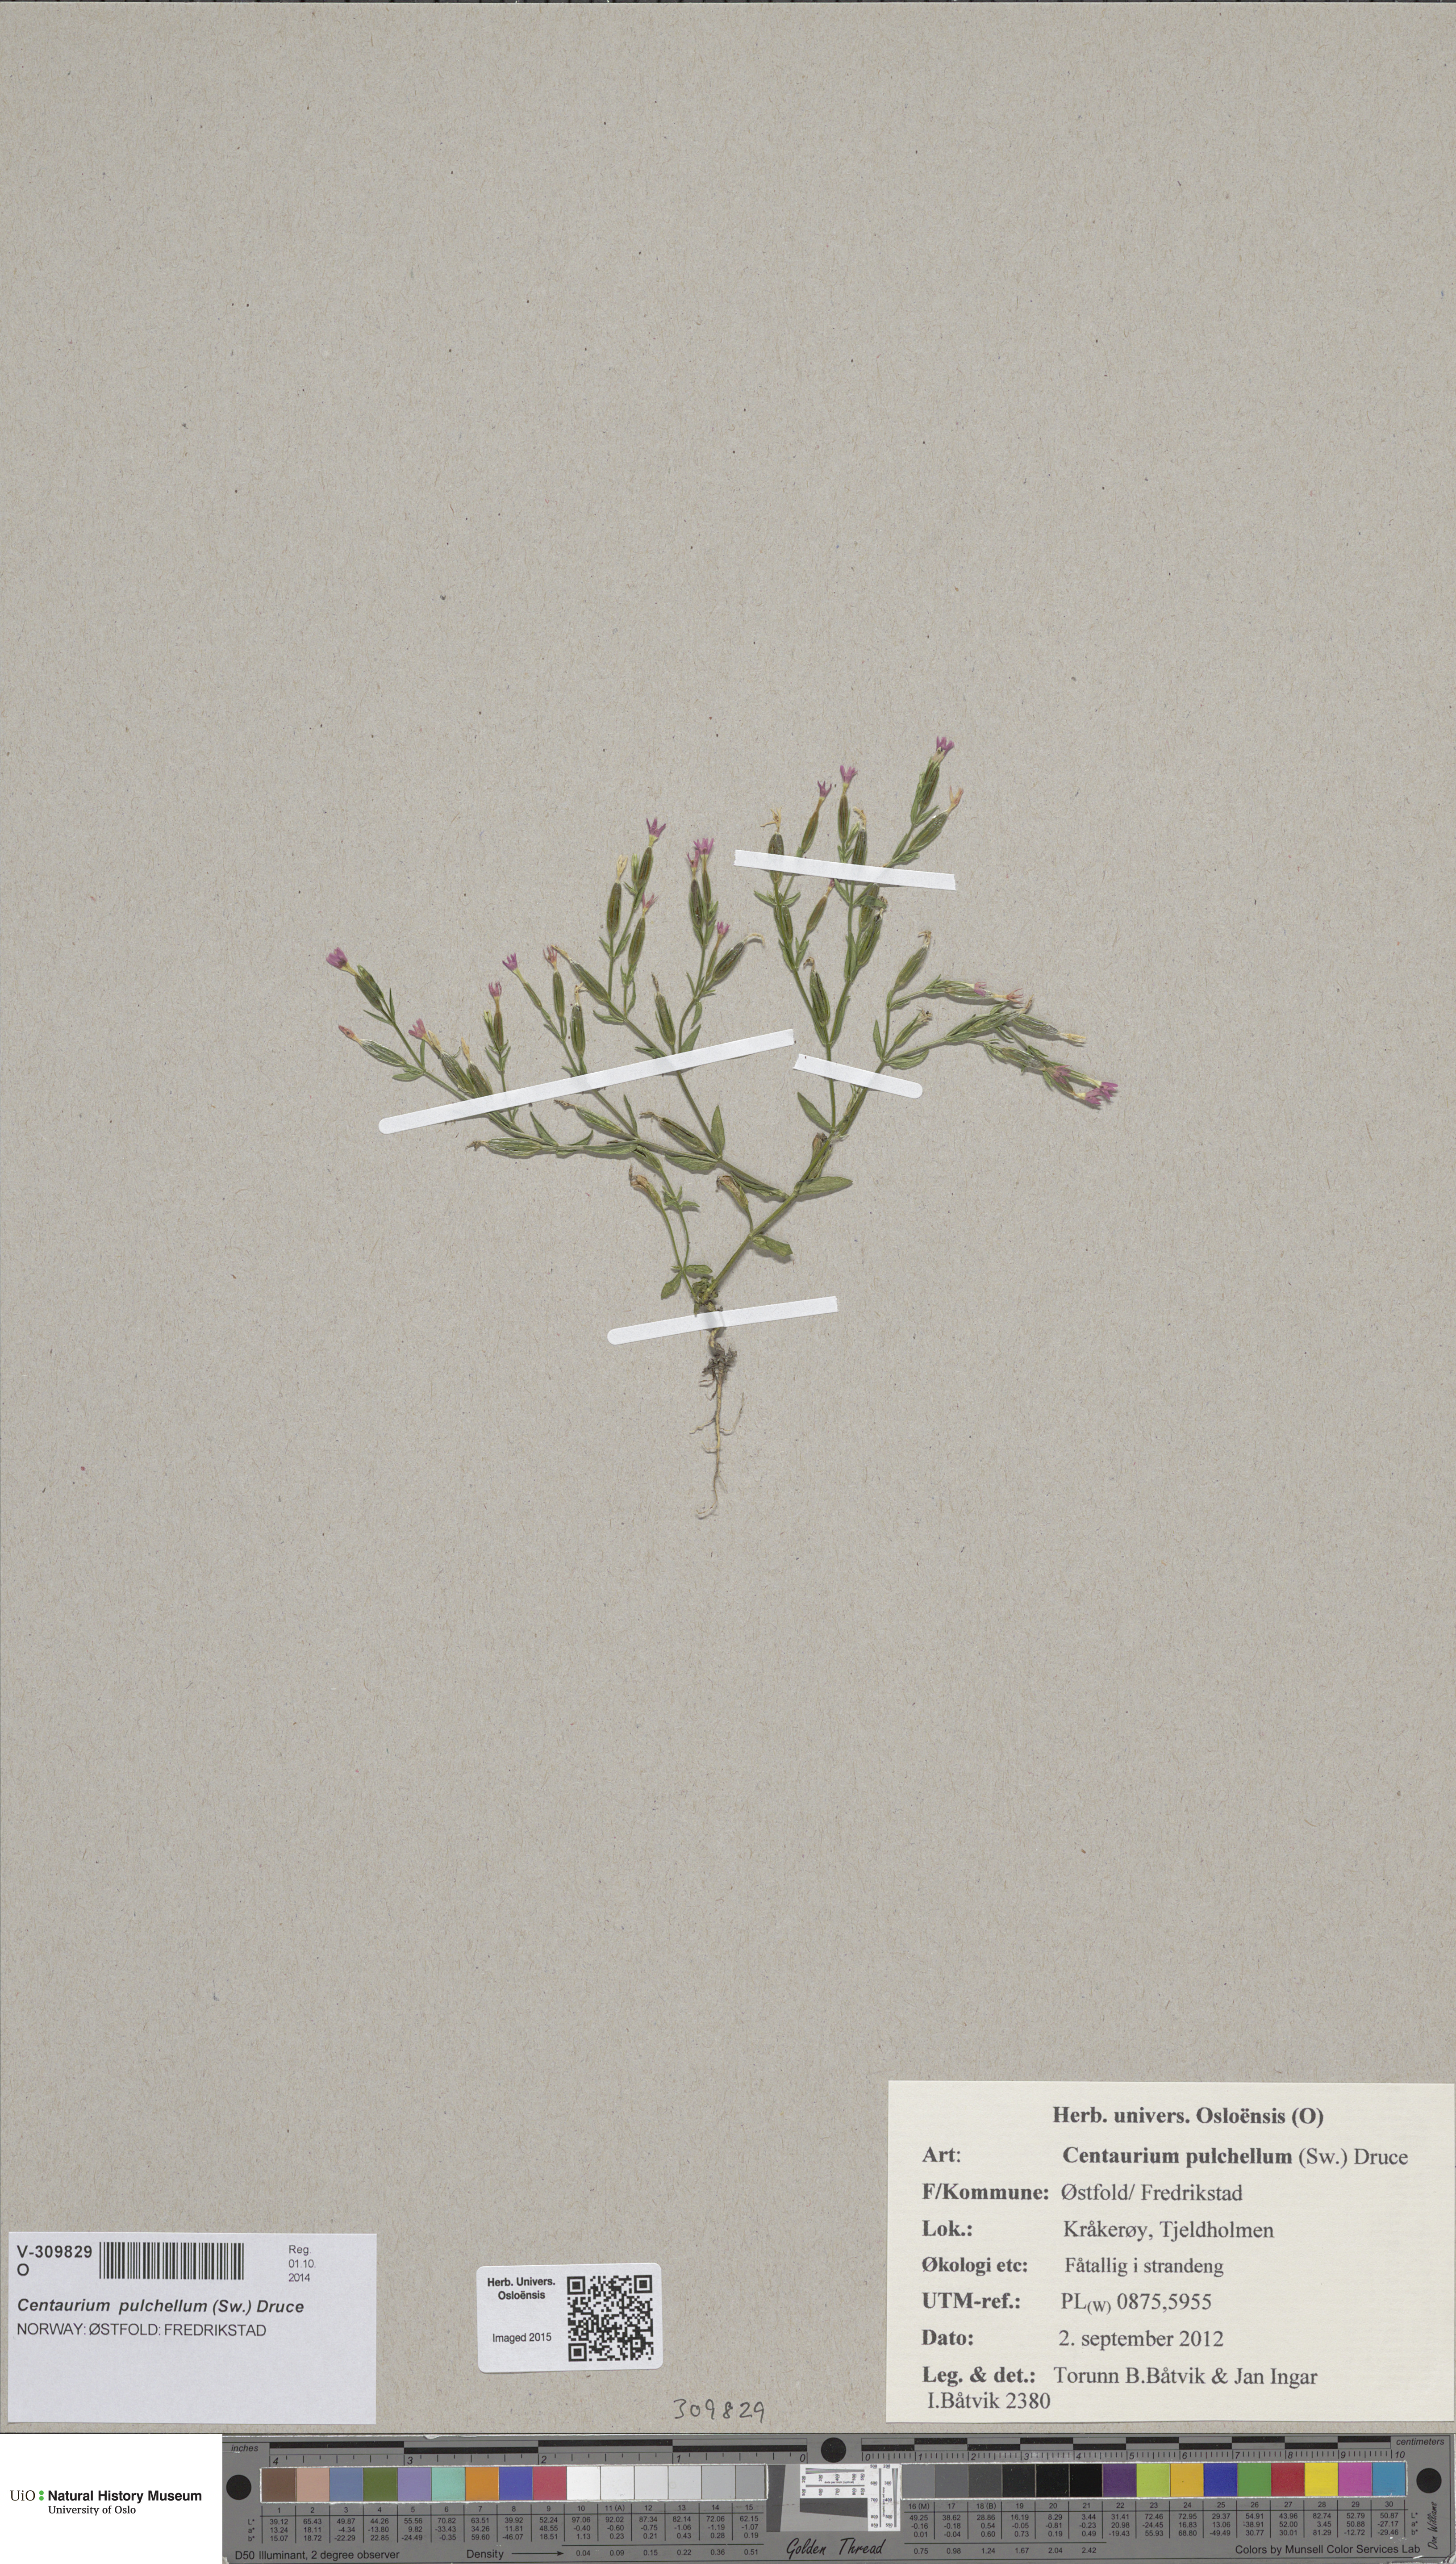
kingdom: Plantae
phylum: Tracheophyta
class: Magnoliopsida
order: Gentianales
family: Gentianaceae
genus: Centaurium
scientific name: Centaurium pulchellum
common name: Lesser centaury
